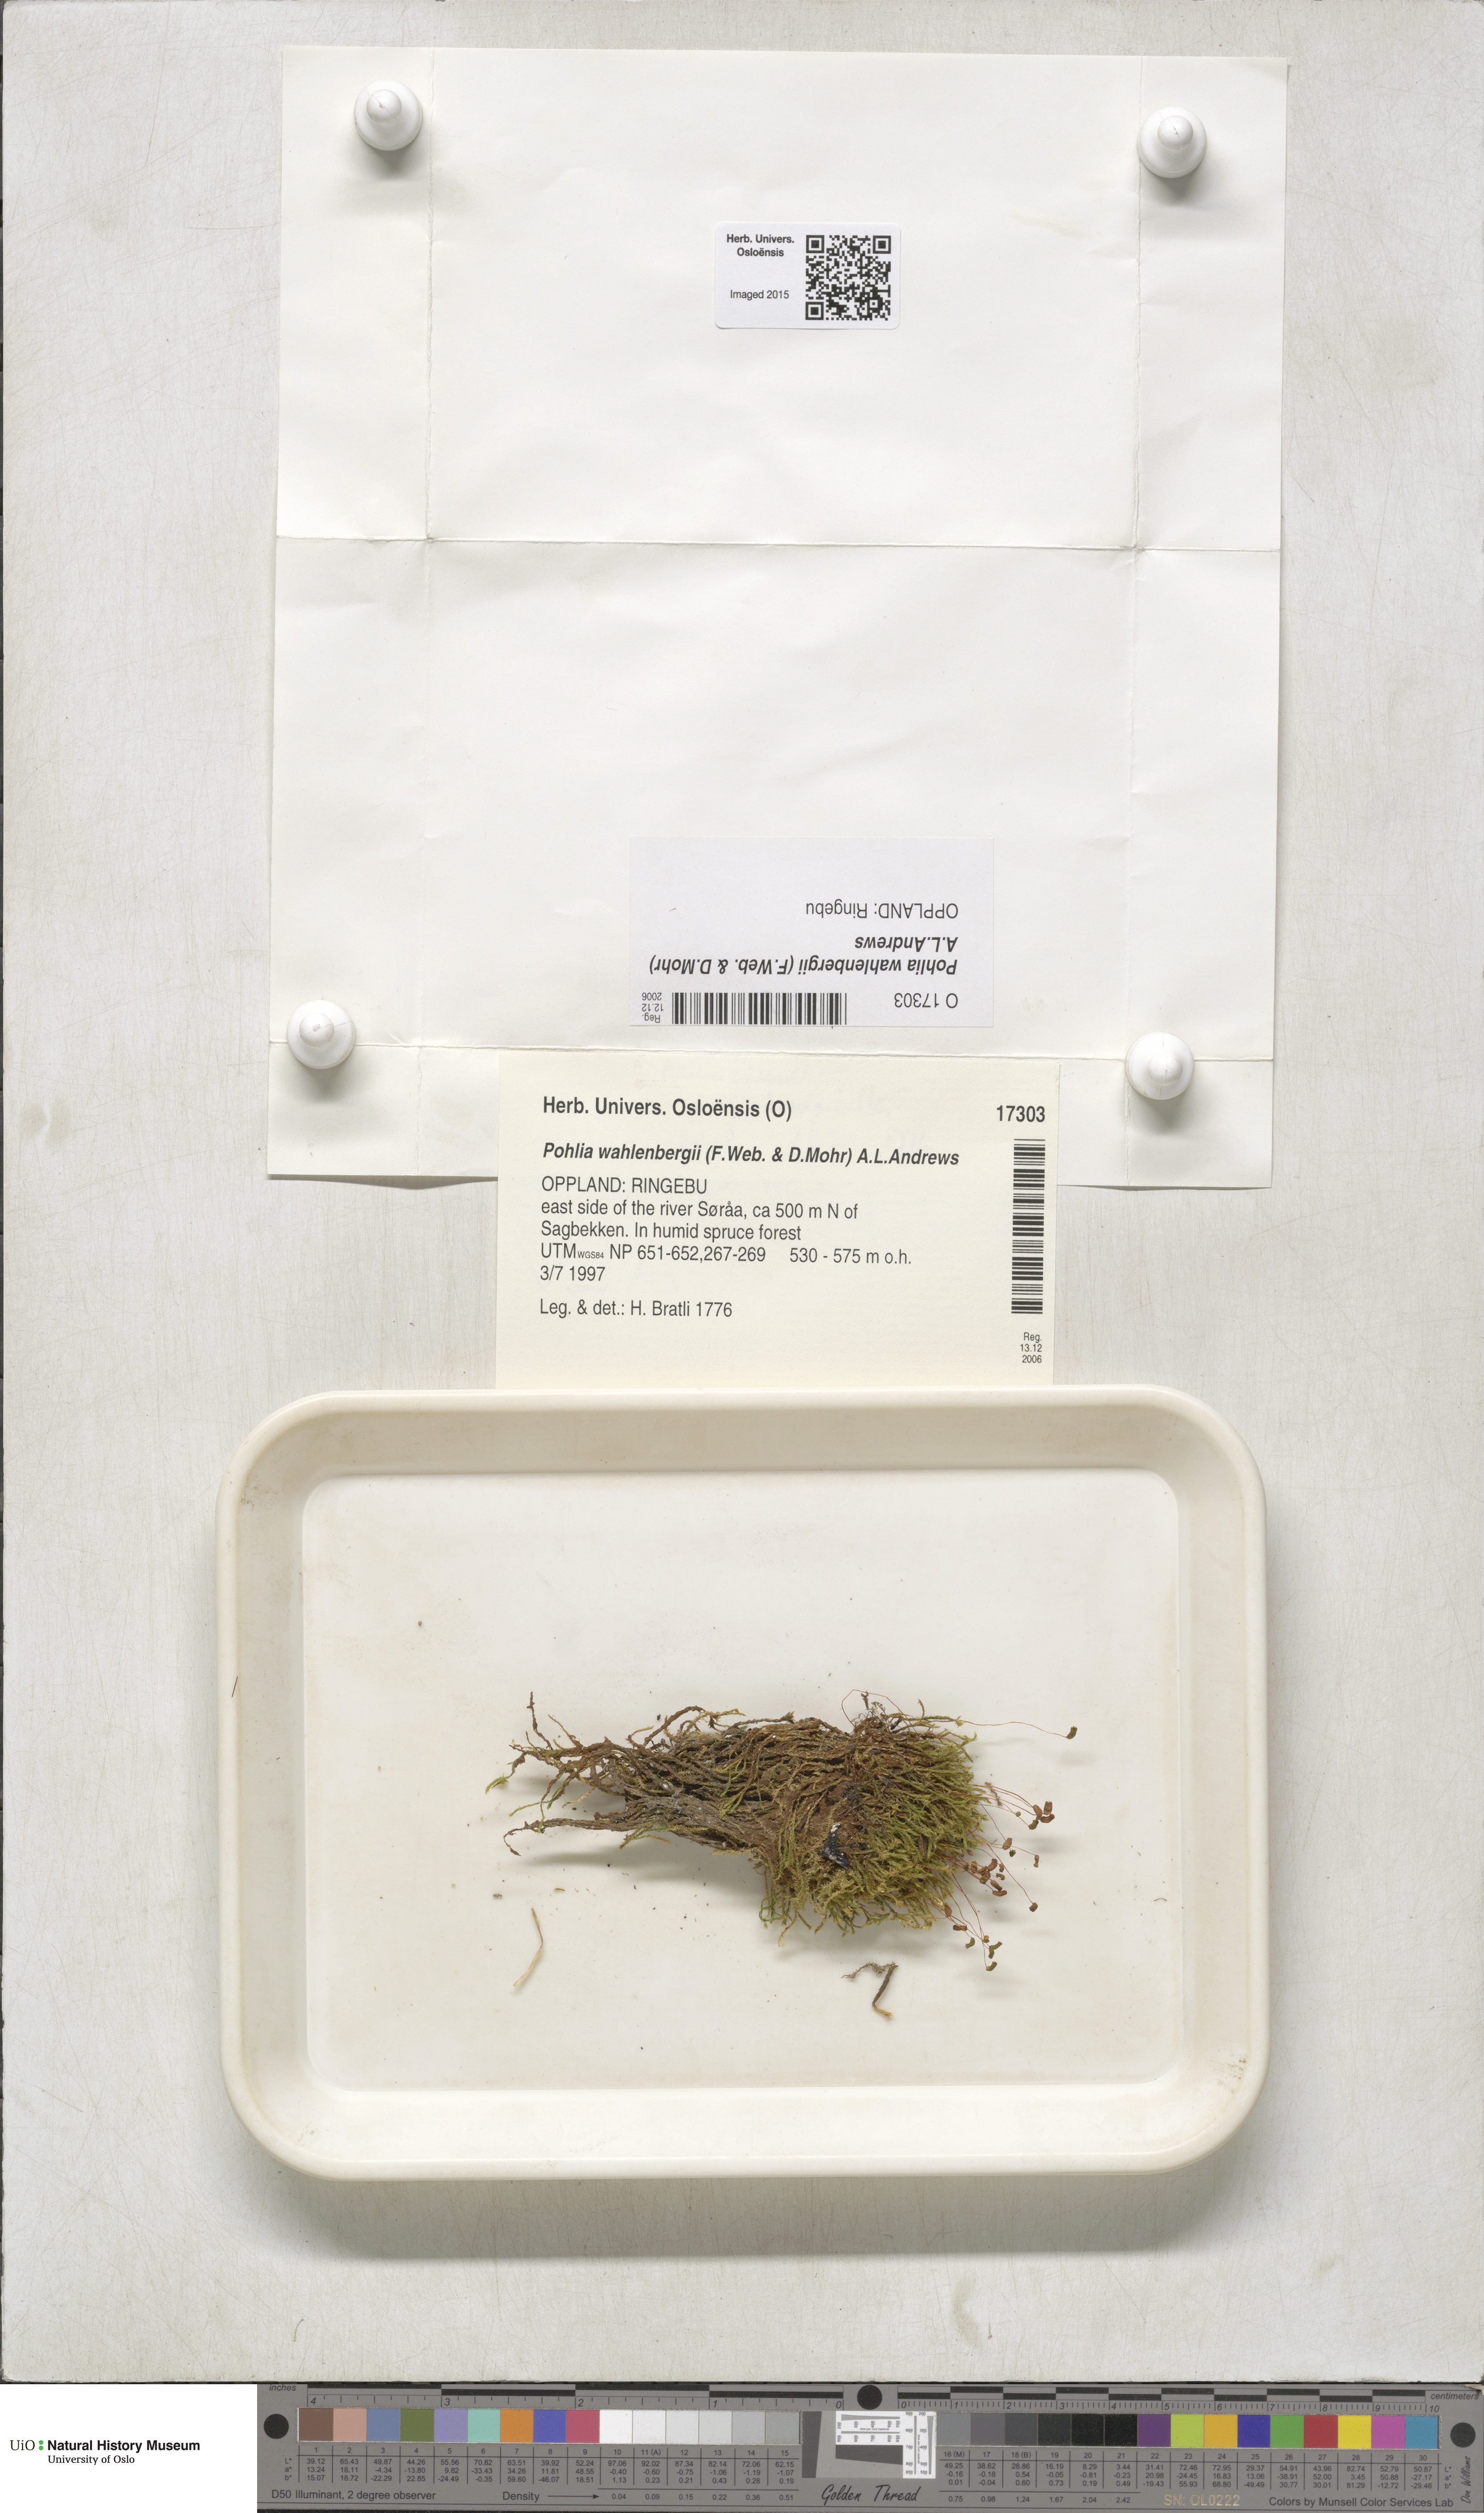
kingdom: Plantae
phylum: Bryophyta
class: Bryopsida
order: Bryales
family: Mniaceae
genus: Pohlia
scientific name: Pohlia wahlenbergii
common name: Wahlenberg's nodding moss
